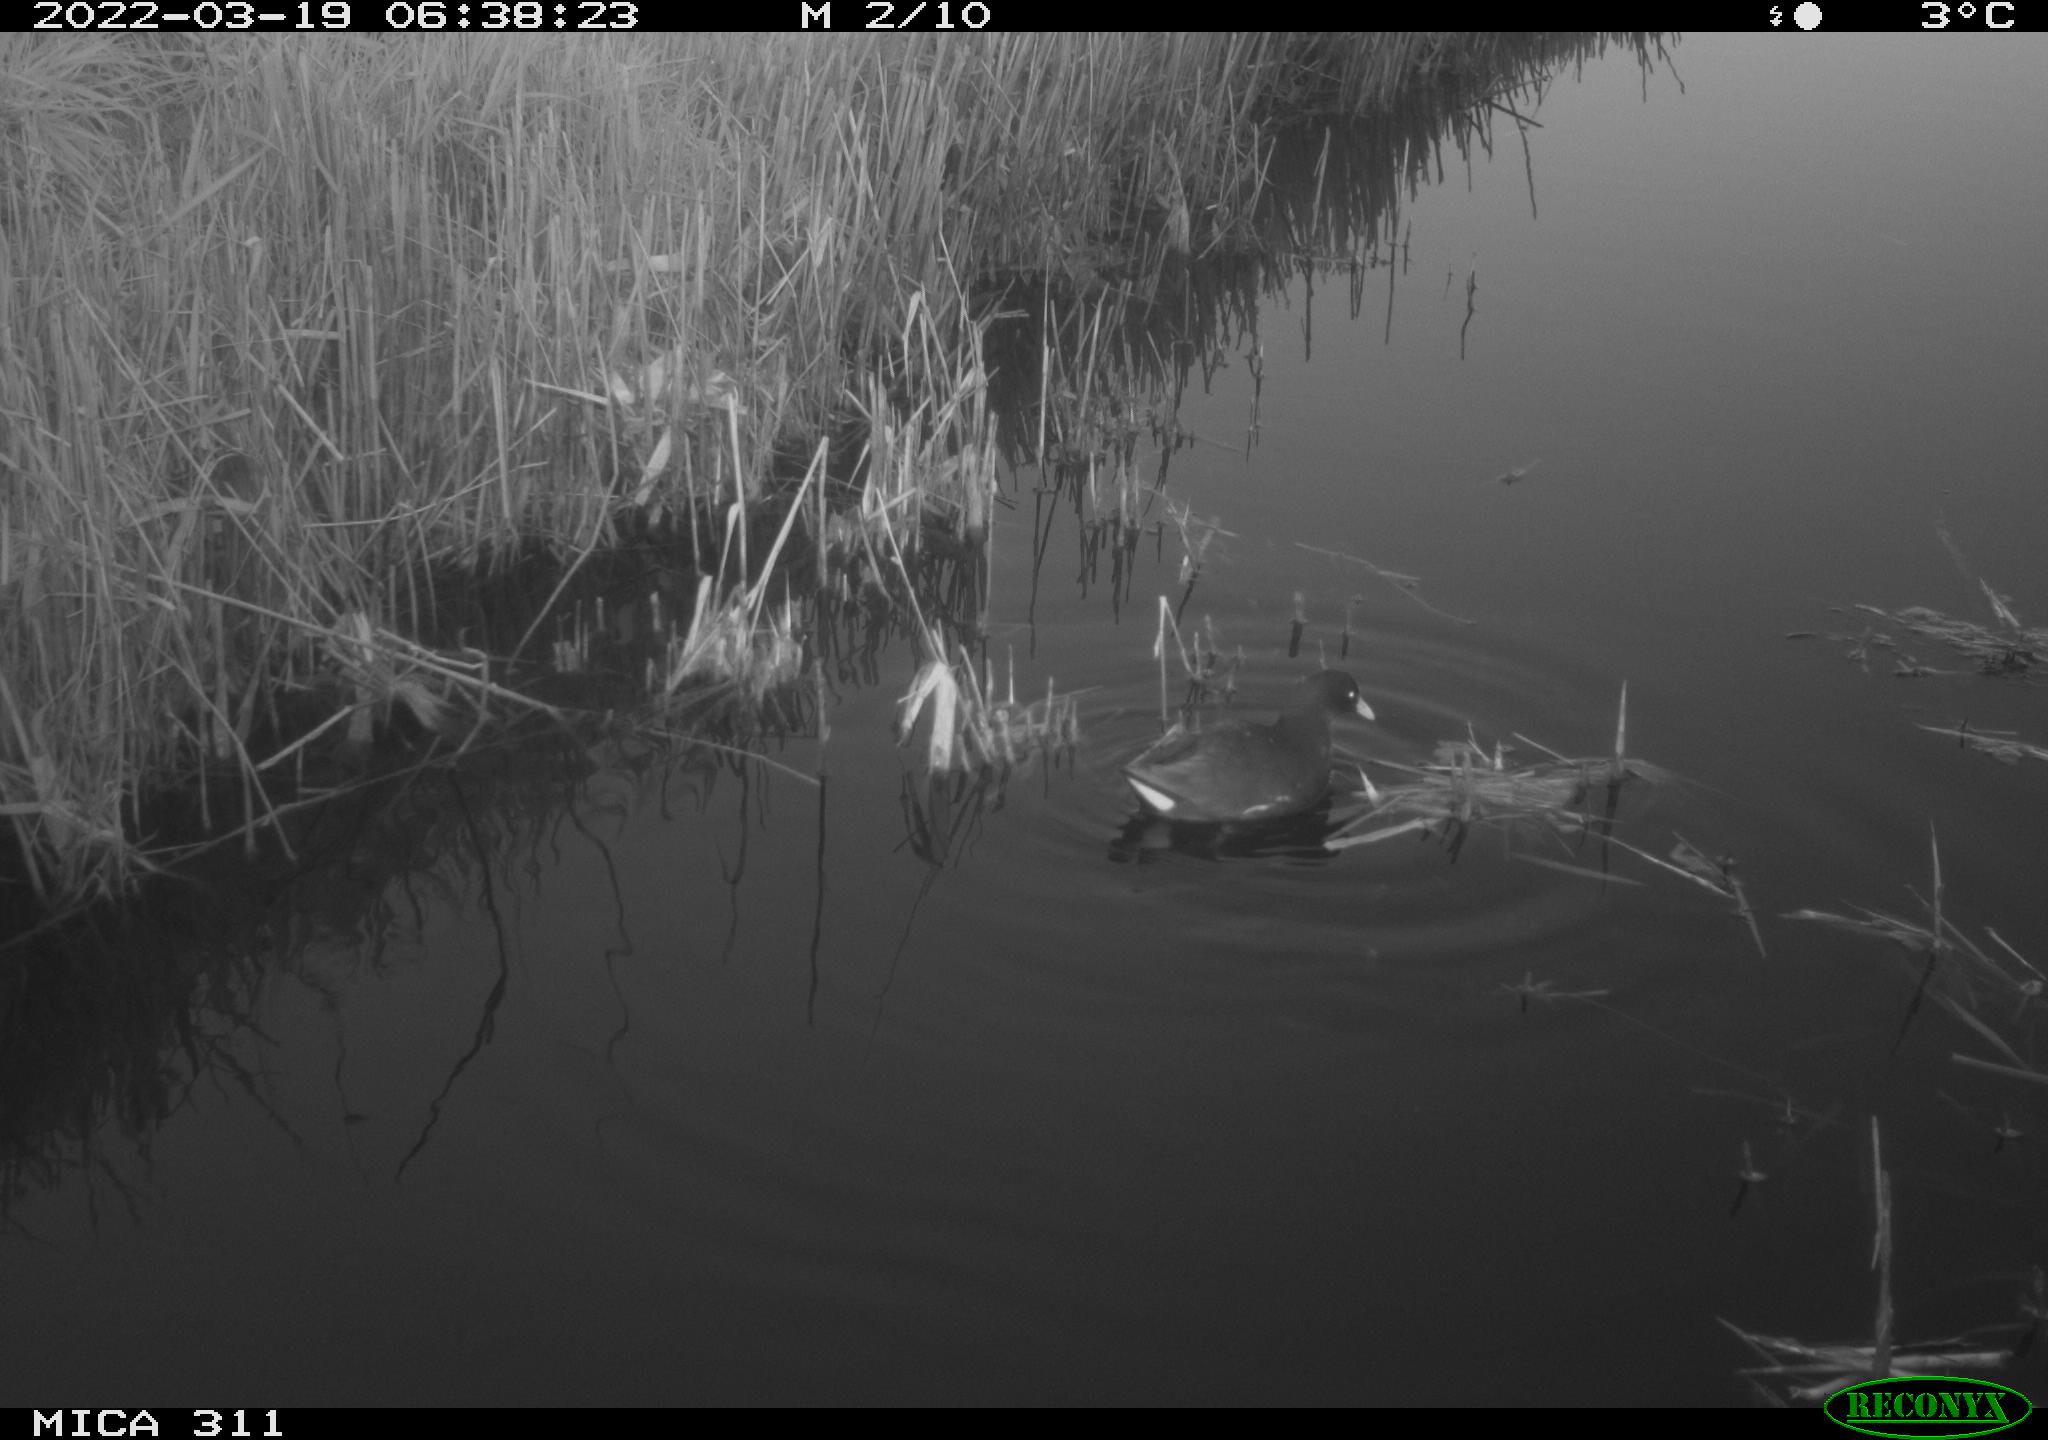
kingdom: Animalia
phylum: Chordata
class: Aves
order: Gruiformes
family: Rallidae
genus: Gallinula
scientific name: Gallinula chloropus
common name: Common moorhen
